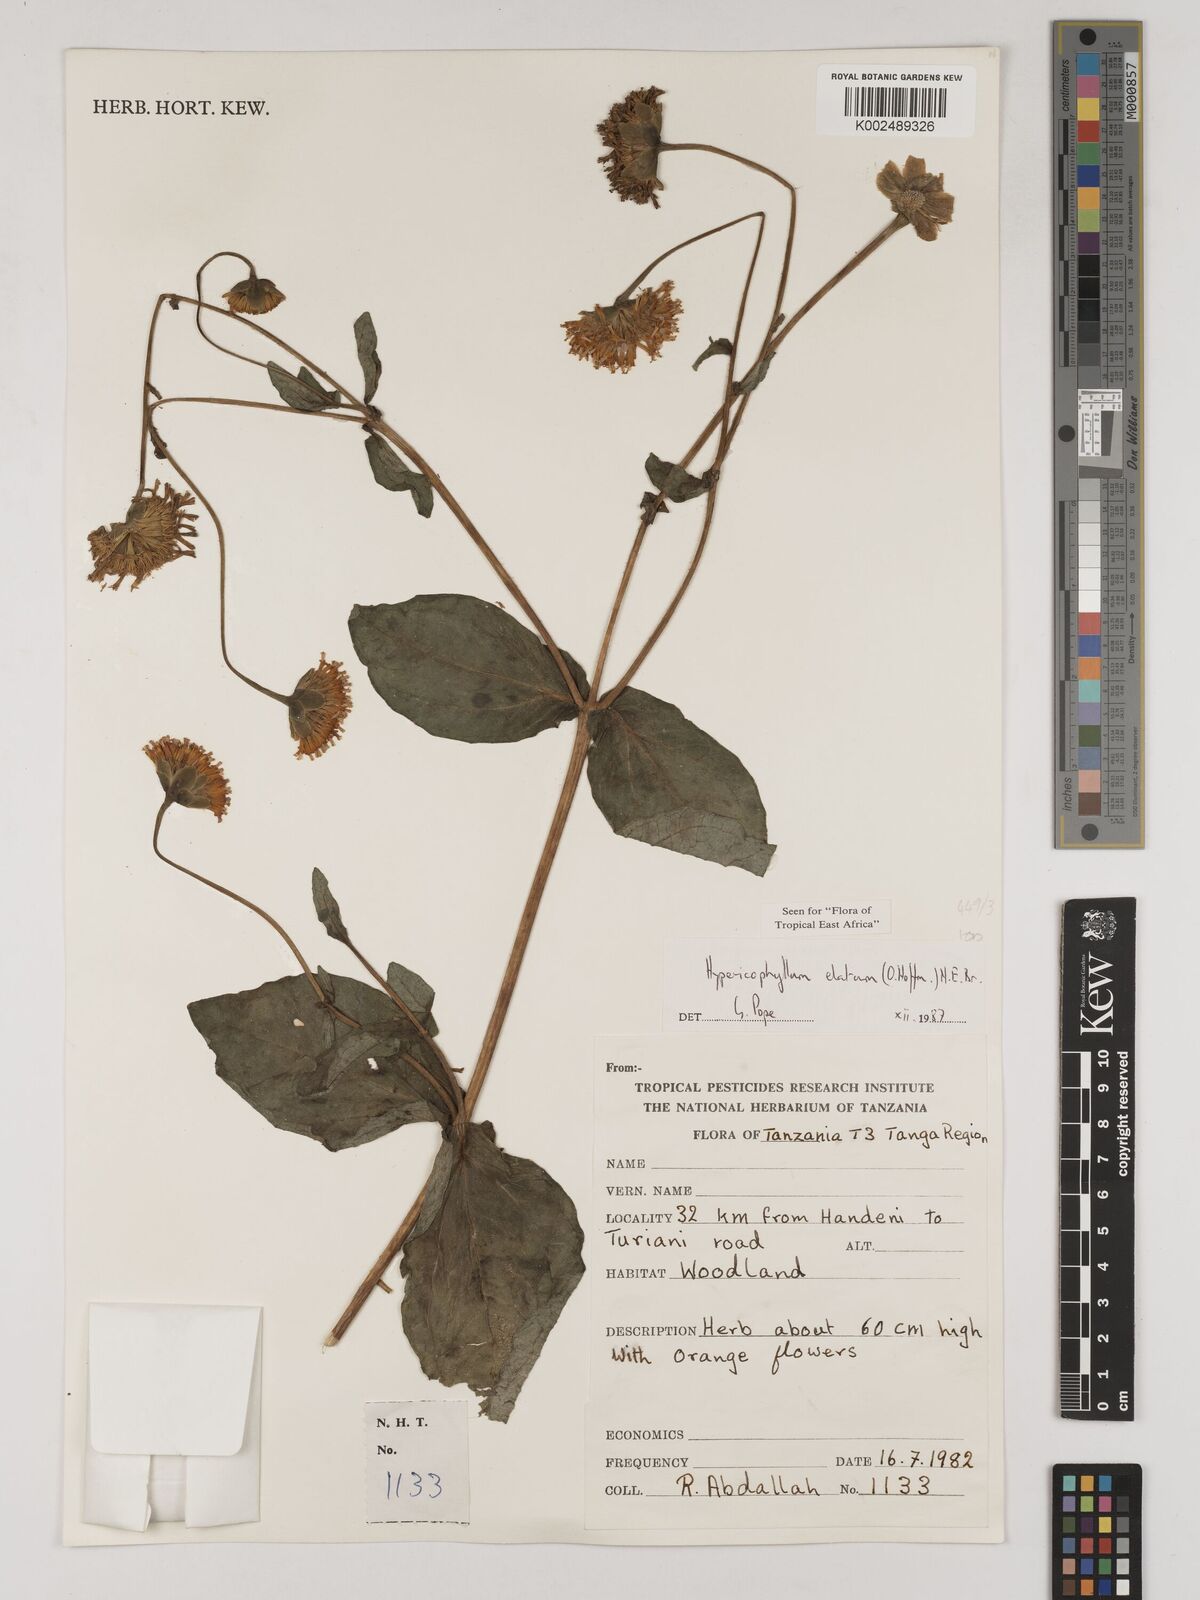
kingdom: Plantae
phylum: Tracheophyta
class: Magnoliopsida
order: Asterales
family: Asteraceae
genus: Hypericophyllum
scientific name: Hypericophyllum elatum
